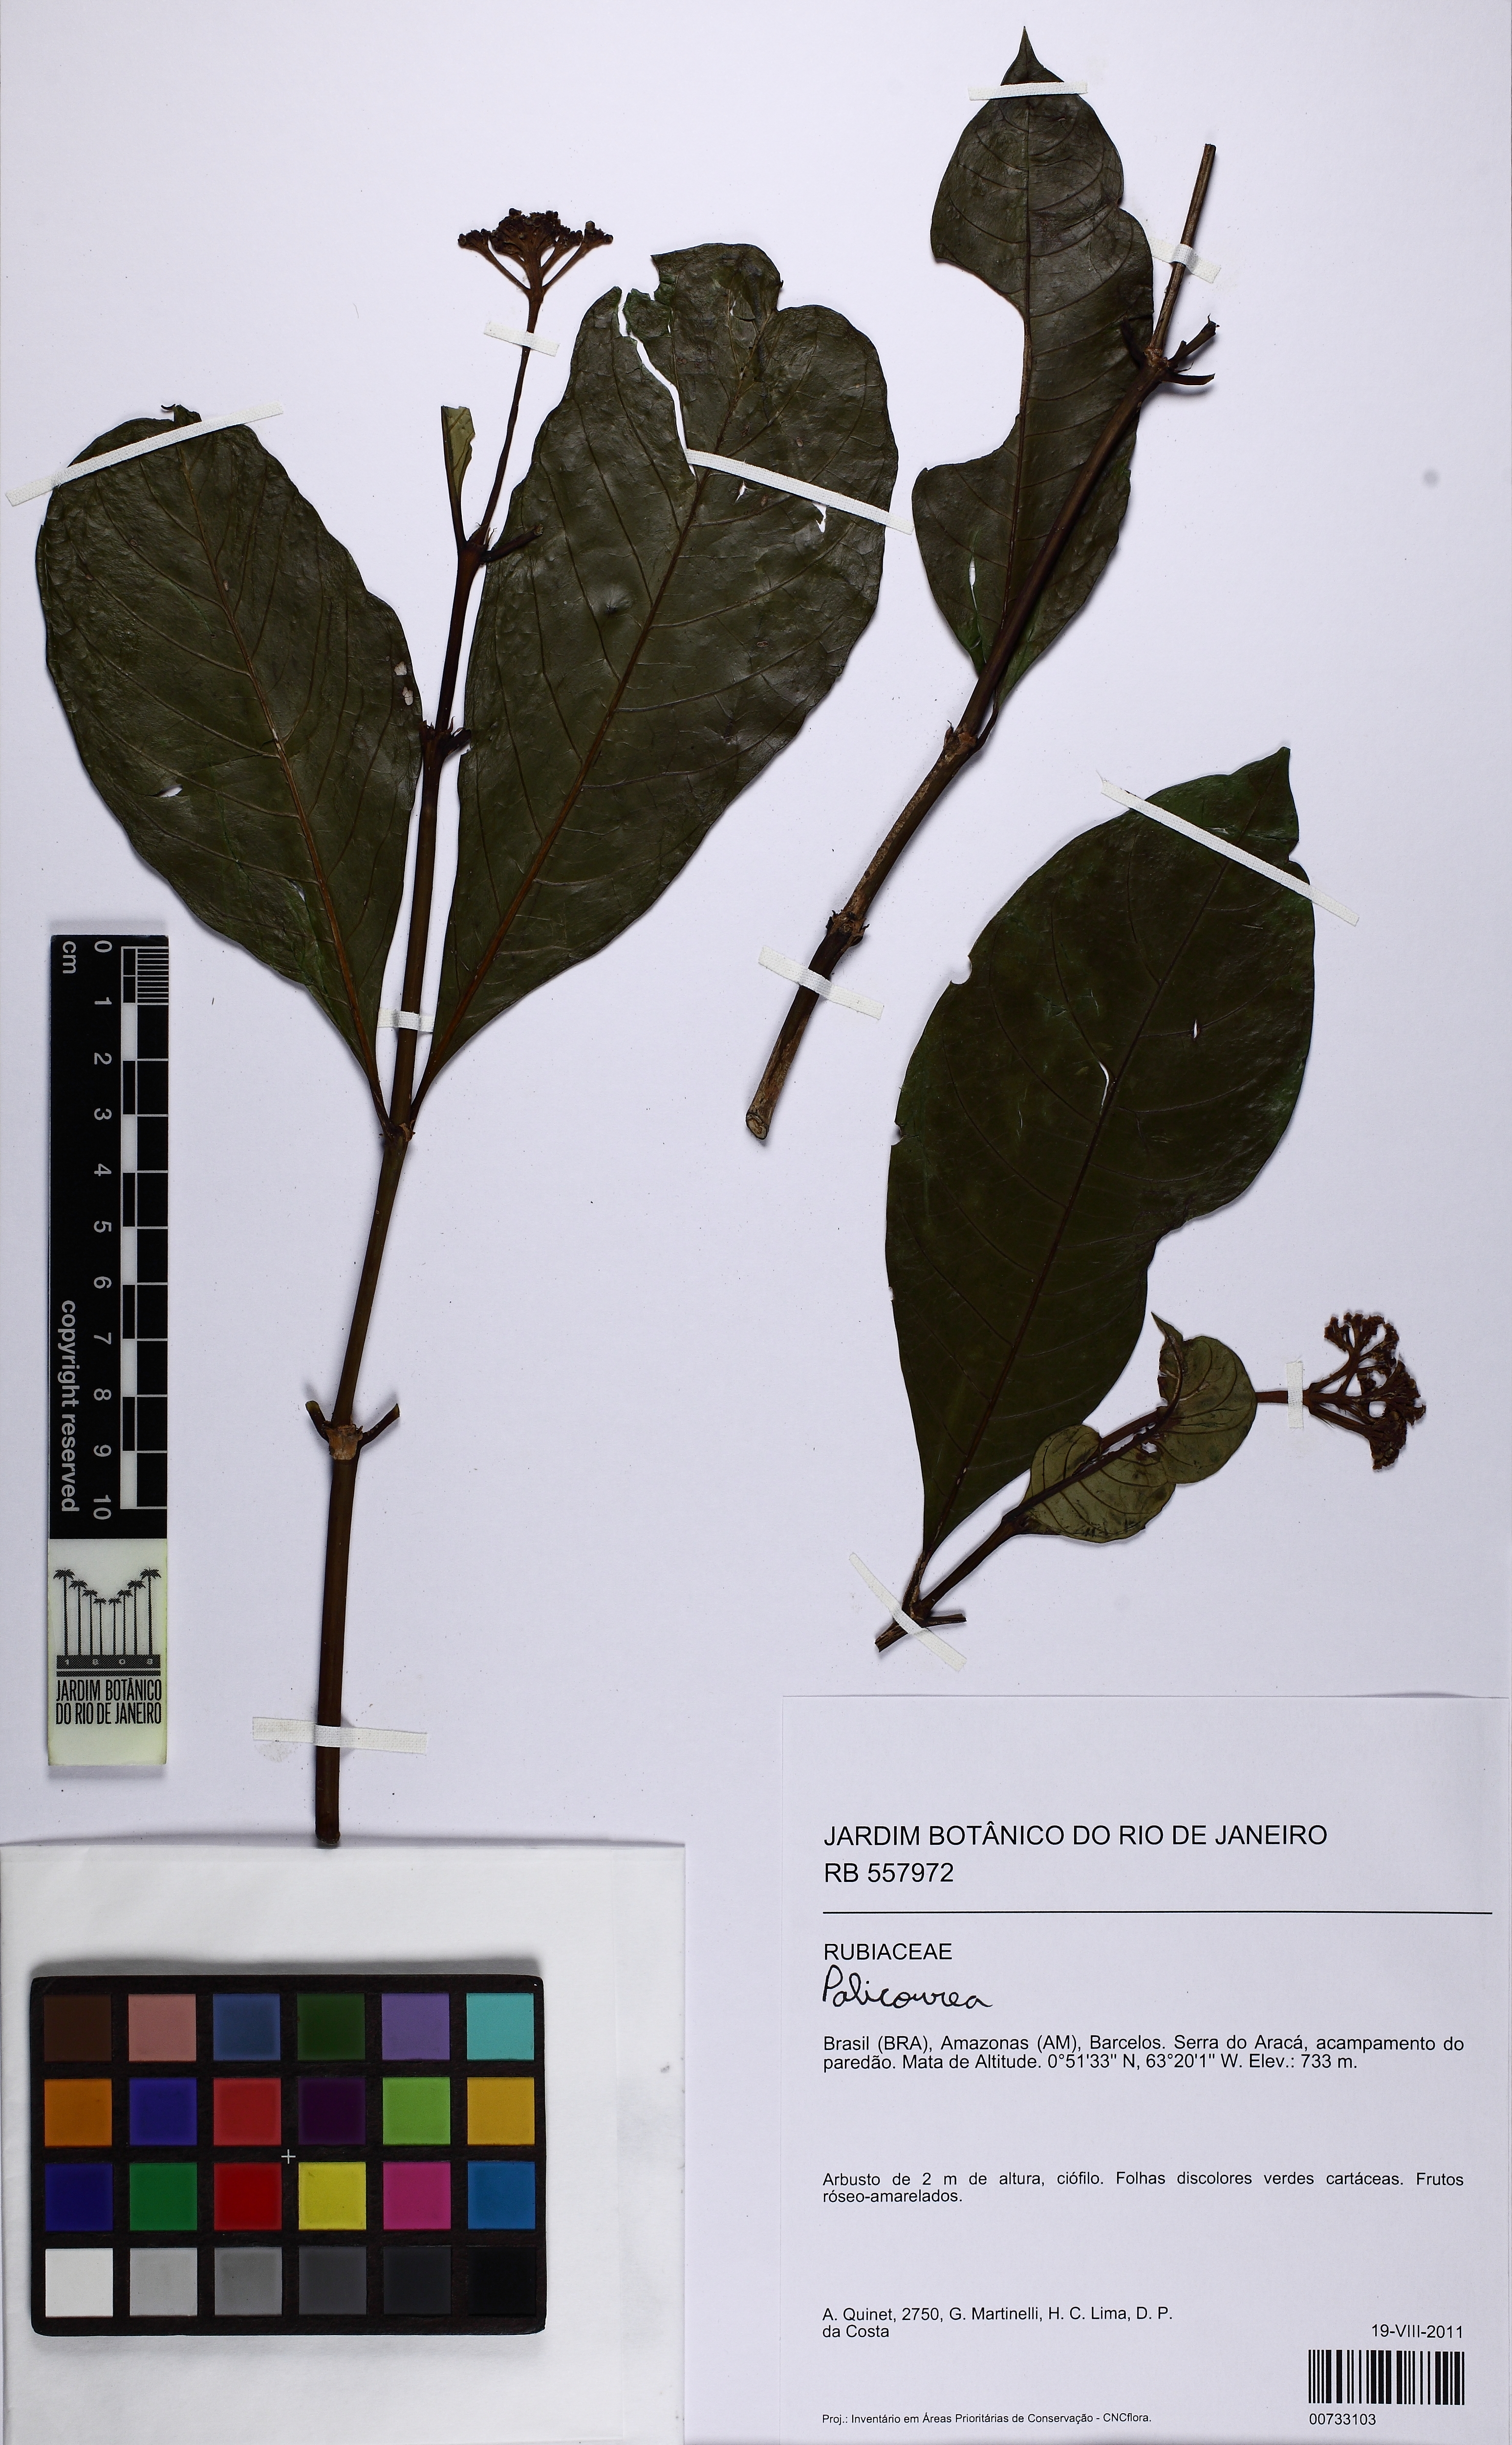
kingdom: Plantae
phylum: Tracheophyta
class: Magnoliopsida
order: Gentianales
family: Rubiaceae
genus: Palicourea
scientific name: Palicourea
